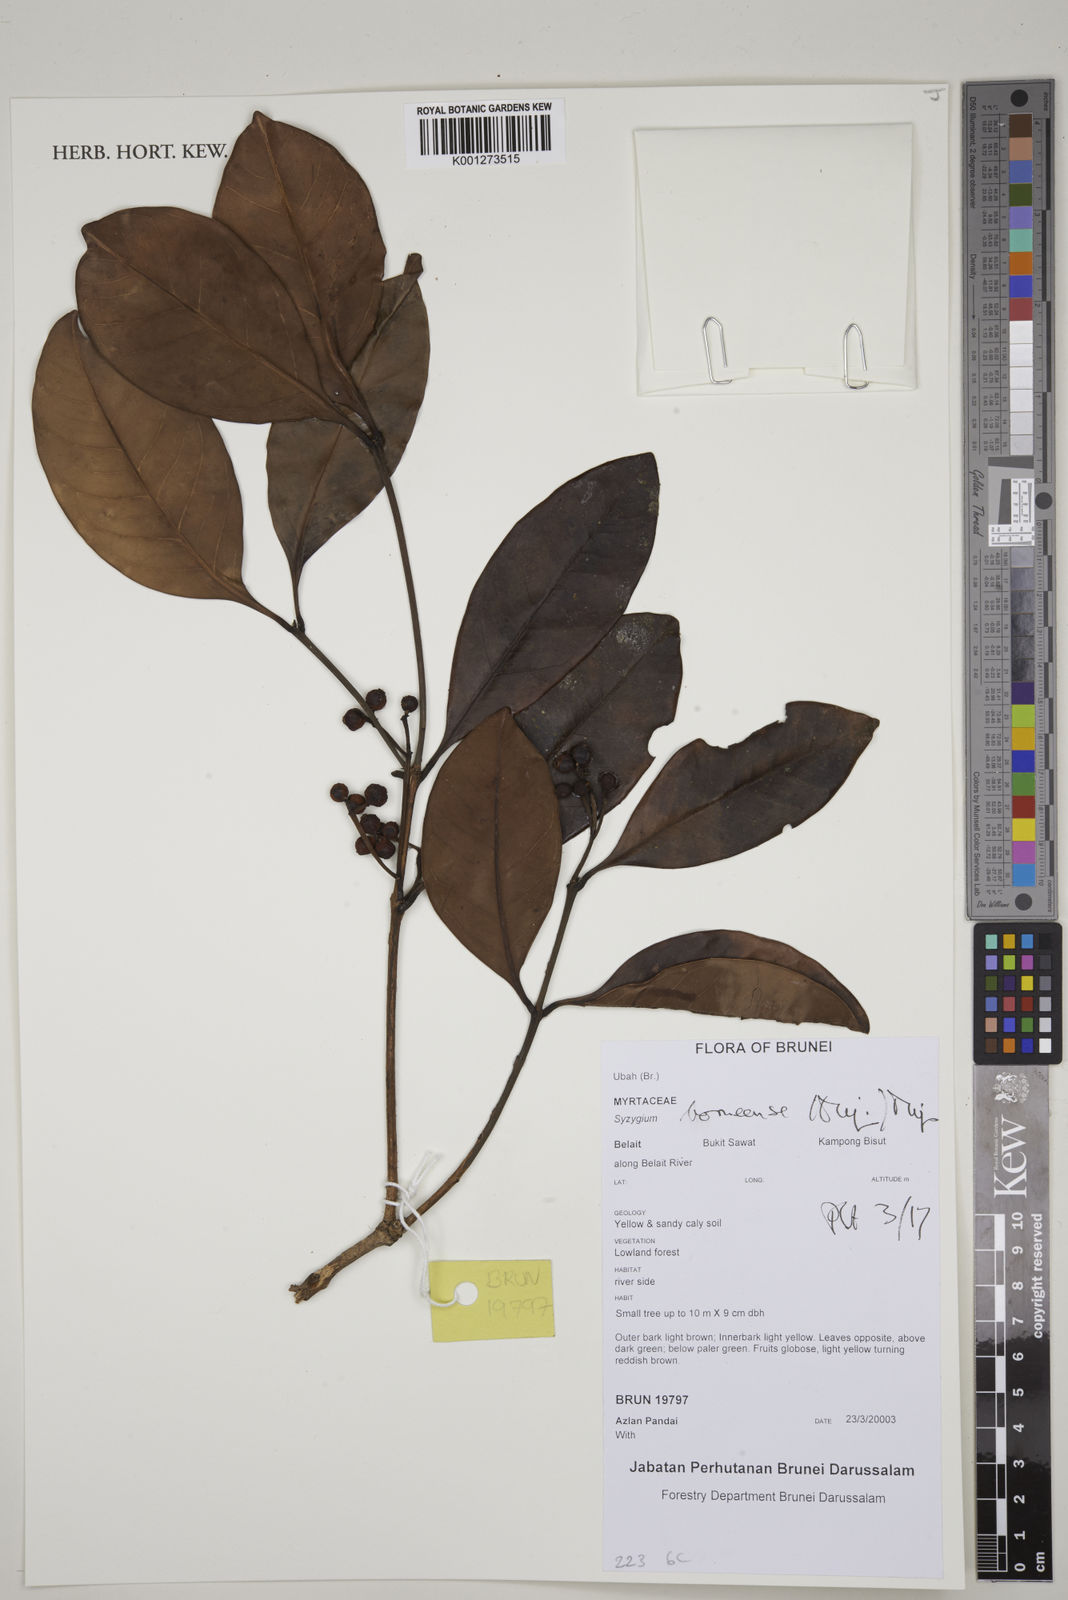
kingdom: Plantae
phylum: Tracheophyta
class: Magnoliopsida
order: Myrtales
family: Myrtaceae
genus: Syzygium
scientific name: Syzygium borneense
